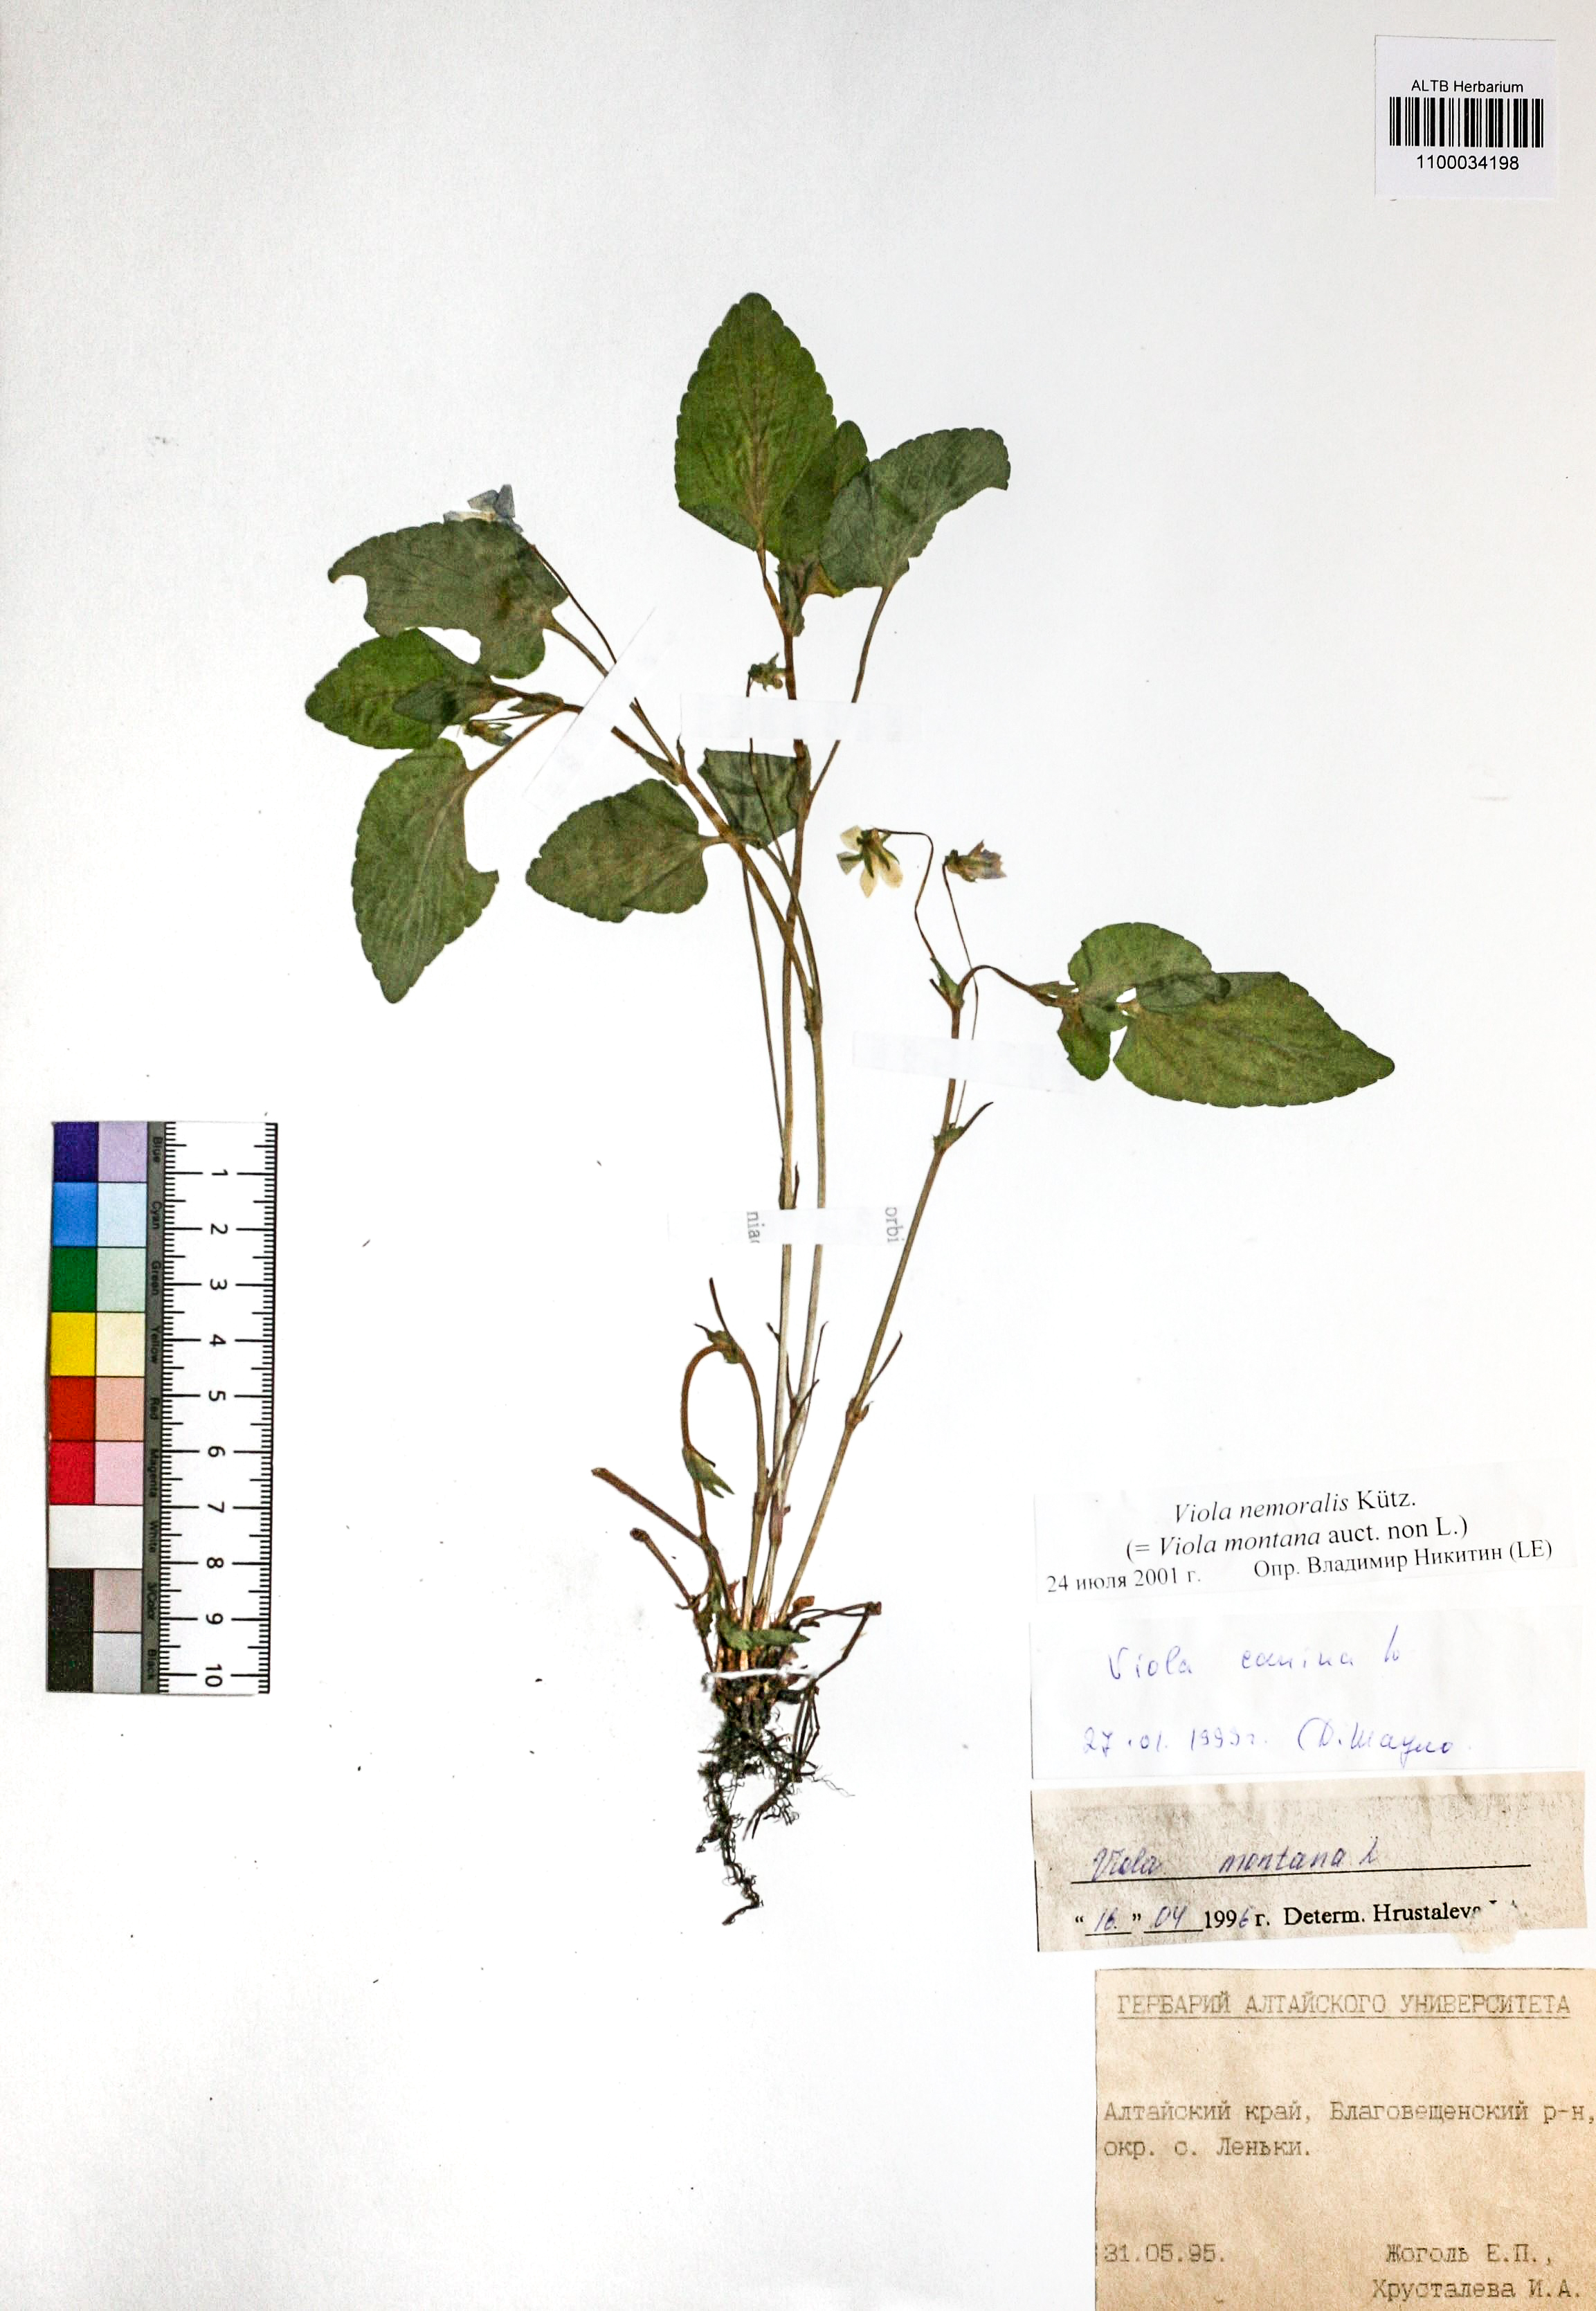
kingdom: Plantae
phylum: Tracheophyta
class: Magnoliopsida
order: Malpighiales
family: Violaceae
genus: Viola
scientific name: Viola ruppii
